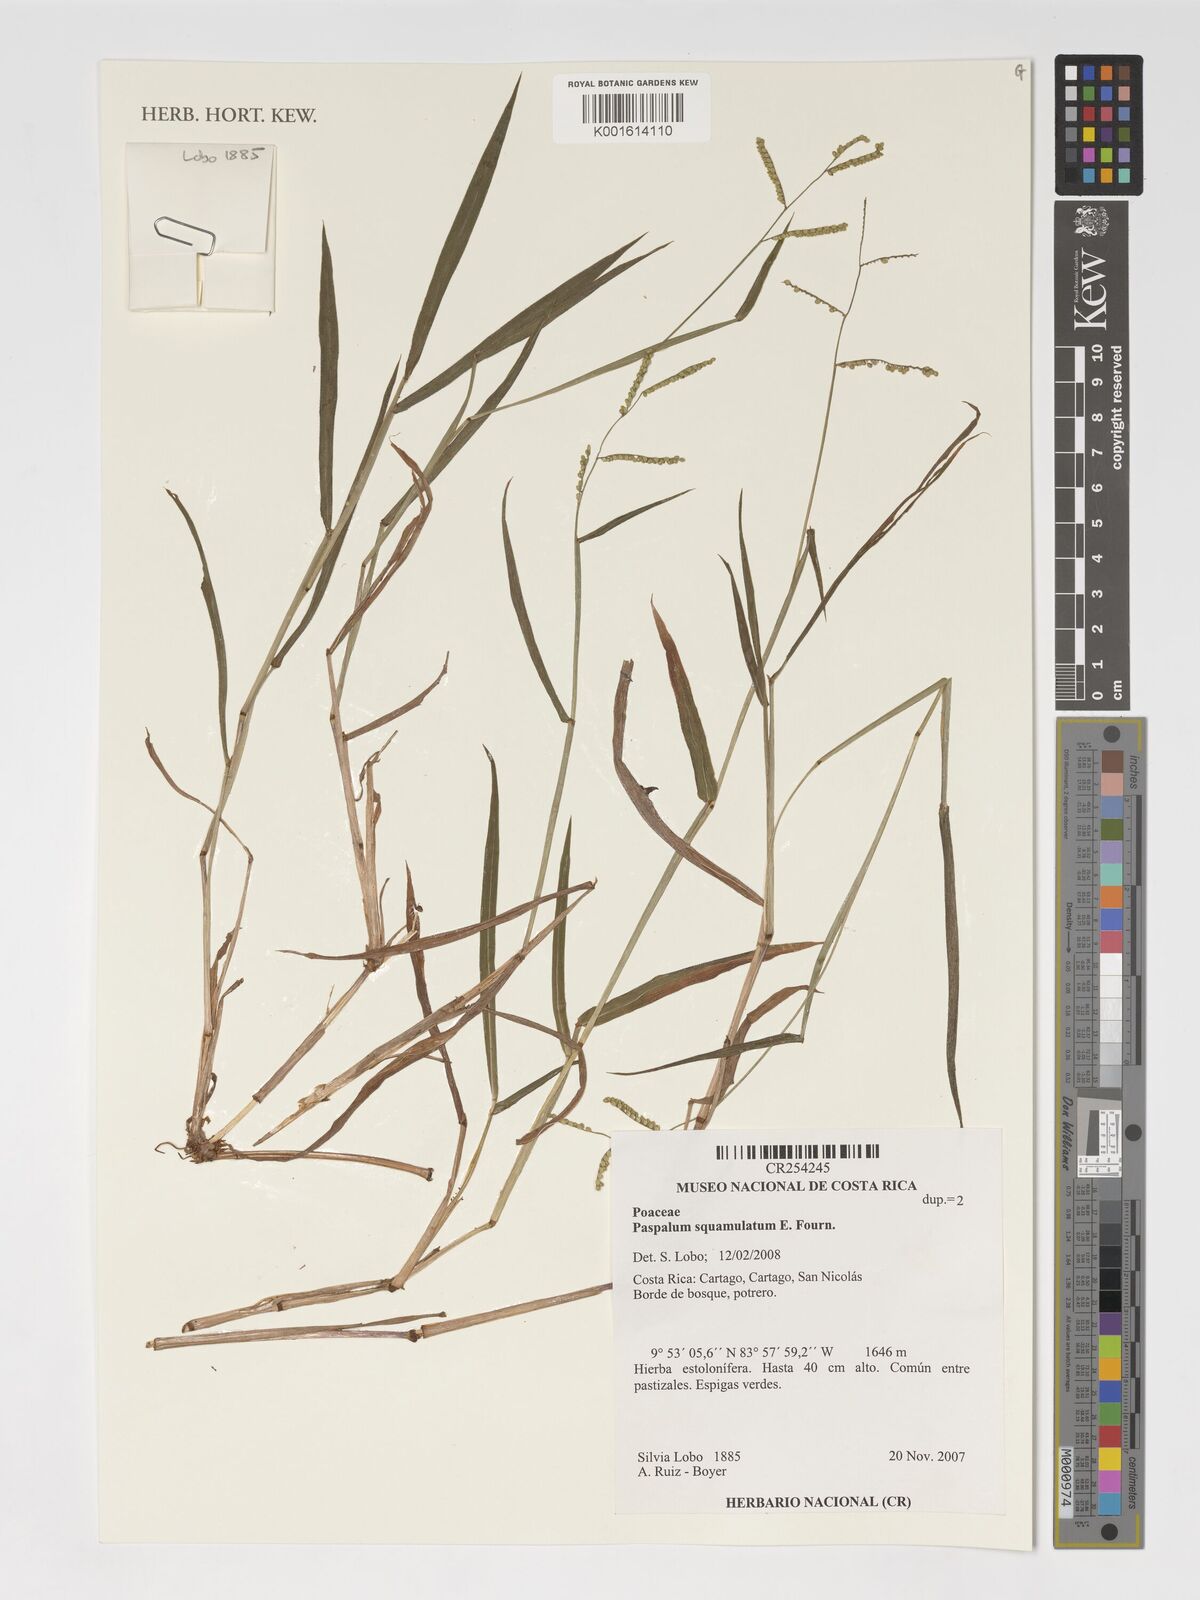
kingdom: Plantae
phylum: Tracheophyta
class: Liliopsida
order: Poales
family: Poaceae
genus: Paspalum
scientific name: Paspalum squamulatum
